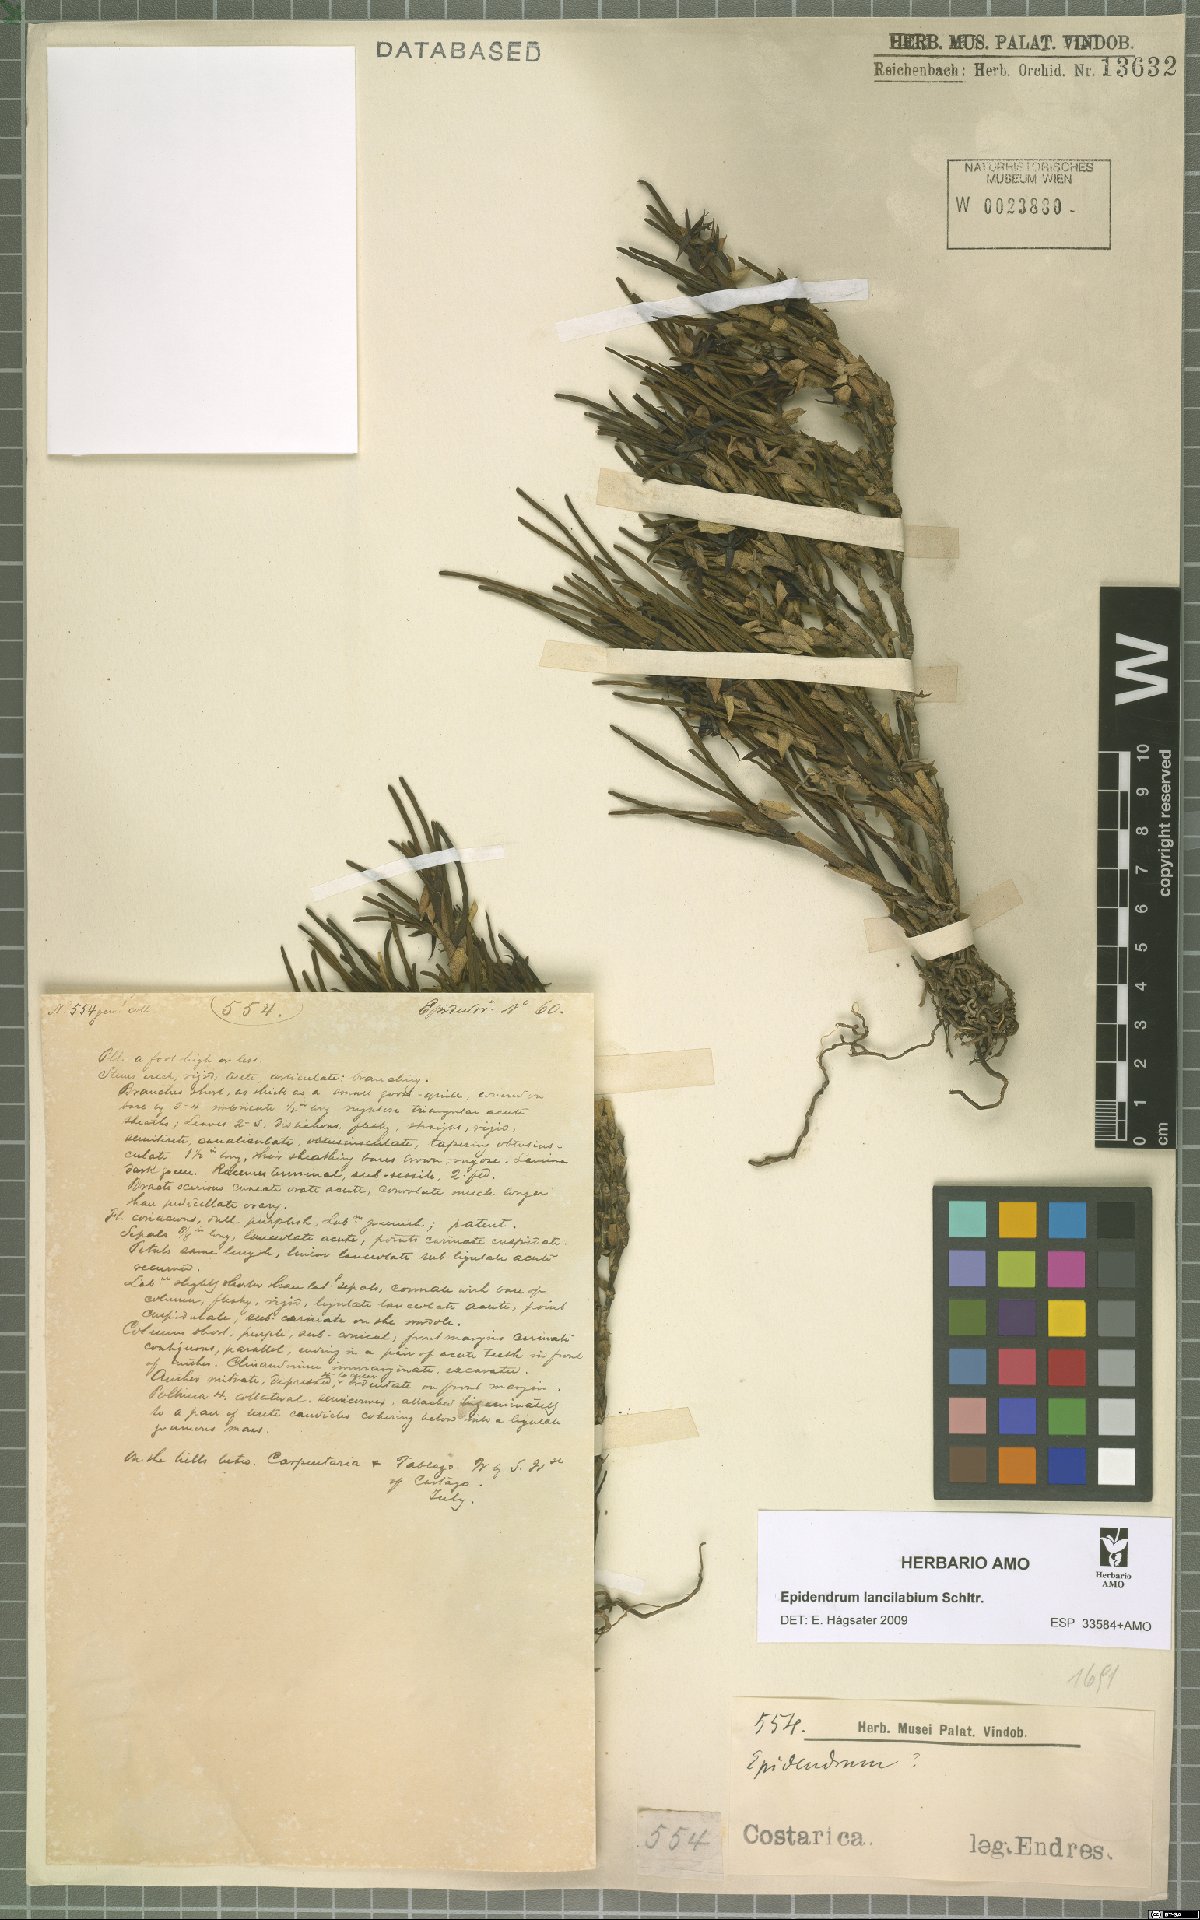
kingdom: Plantae
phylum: Tracheophyta
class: Liliopsida
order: Asparagales
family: Orchidaceae
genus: Epidendrum
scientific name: Epidendrum lancilabium
